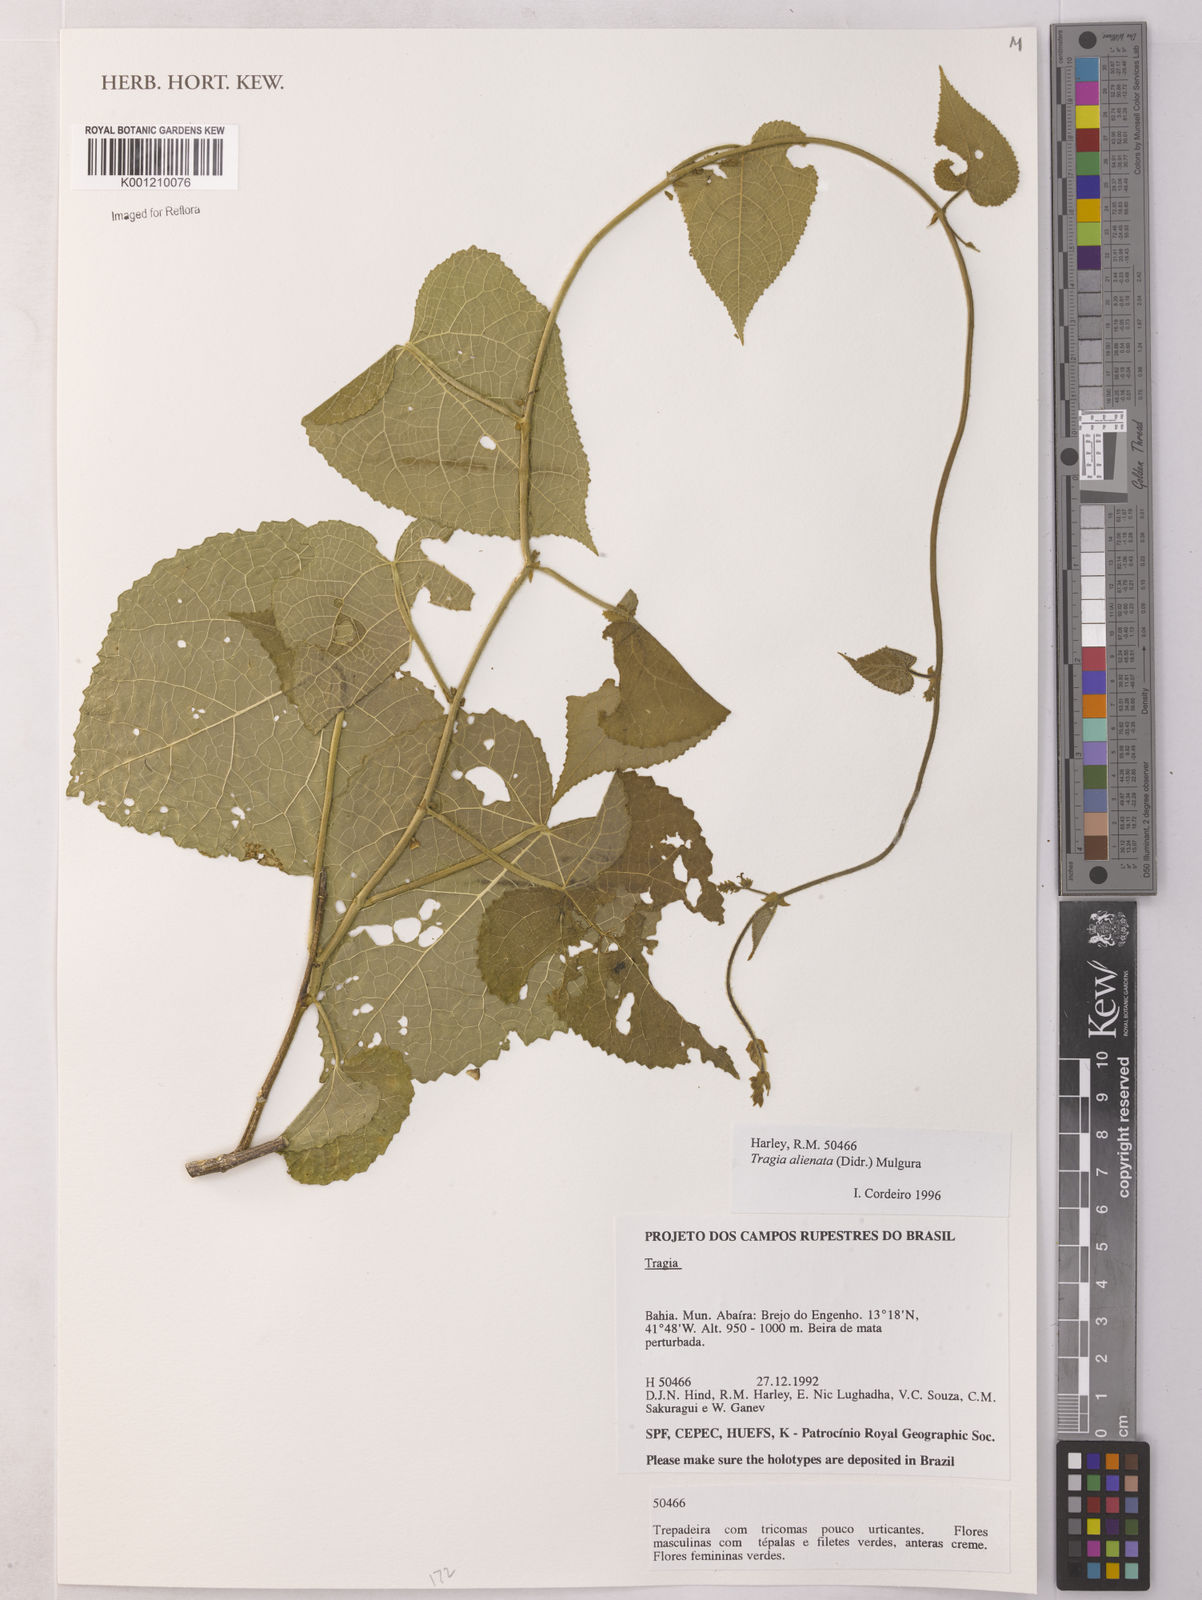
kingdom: Plantae
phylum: Tracheophyta
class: Magnoliopsida
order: Malpighiales
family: Euphorbiaceae
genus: Bia
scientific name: Bia alienata
